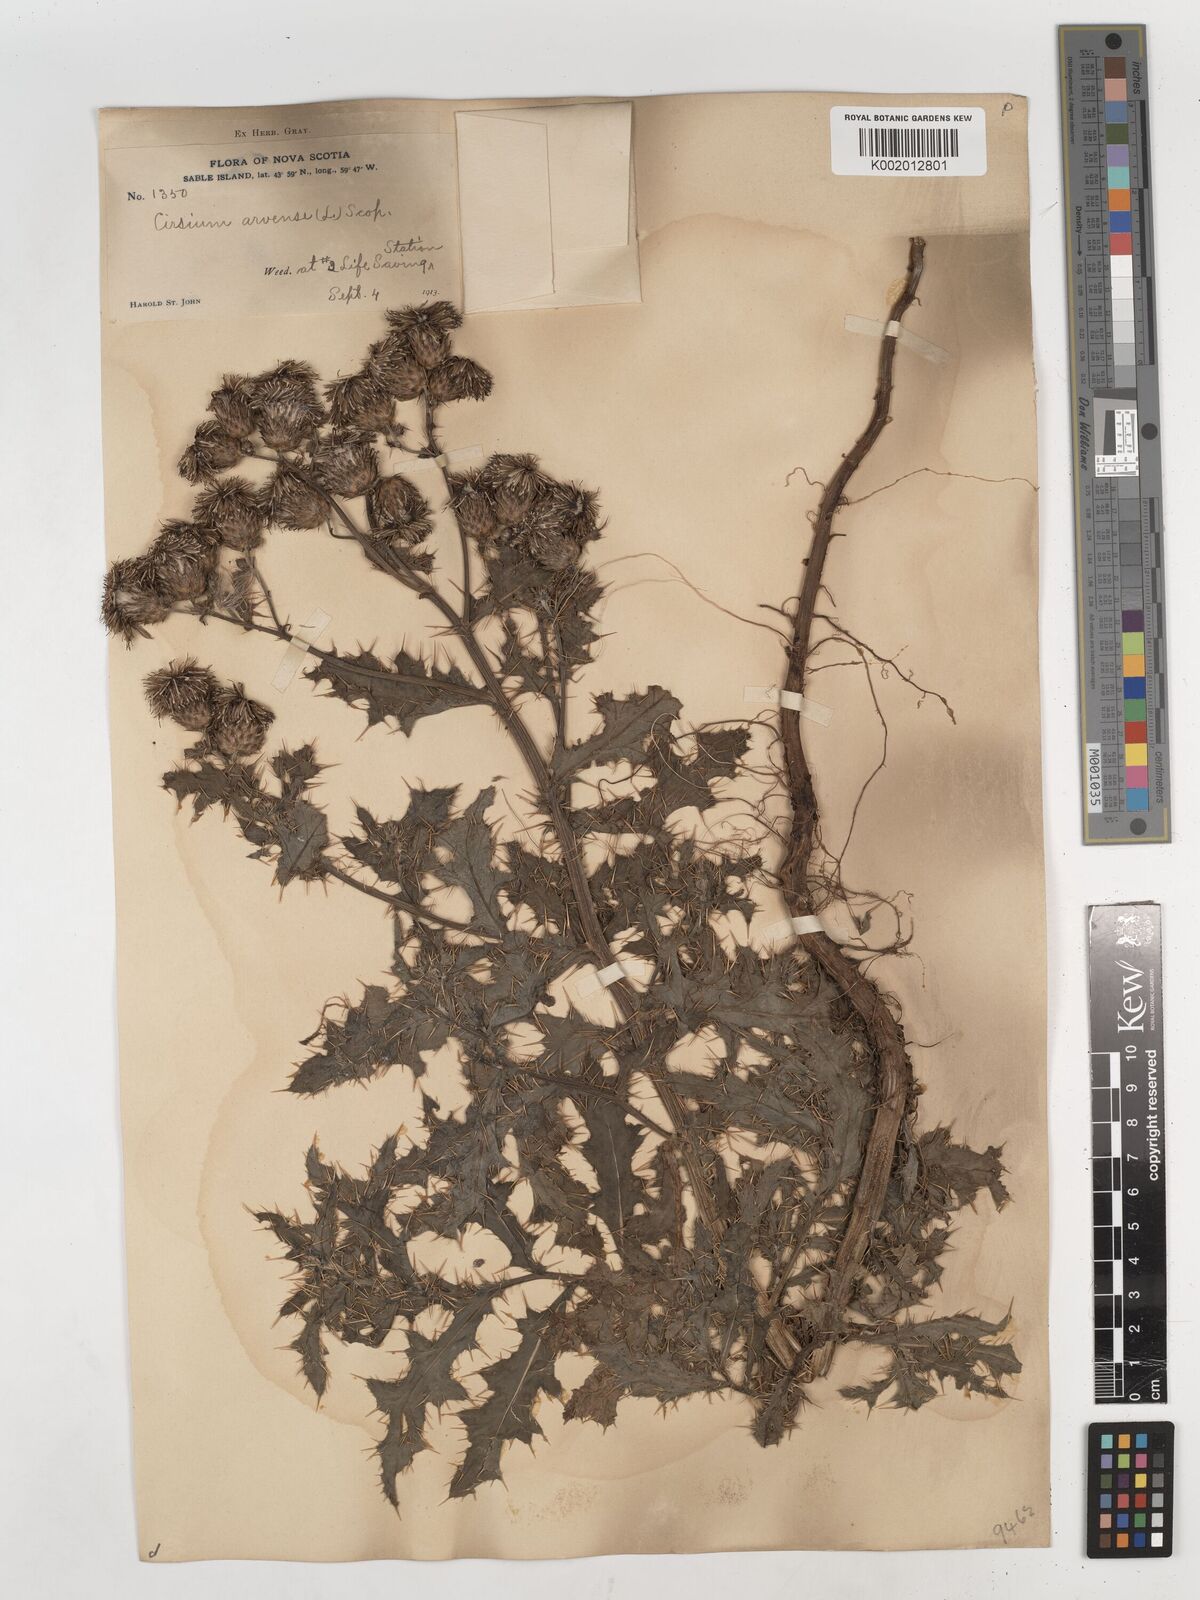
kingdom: Plantae
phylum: Tracheophyta
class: Magnoliopsida
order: Asterales
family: Asteraceae
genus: Cirsium
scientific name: Cirsium arvense
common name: Creeping thistle
